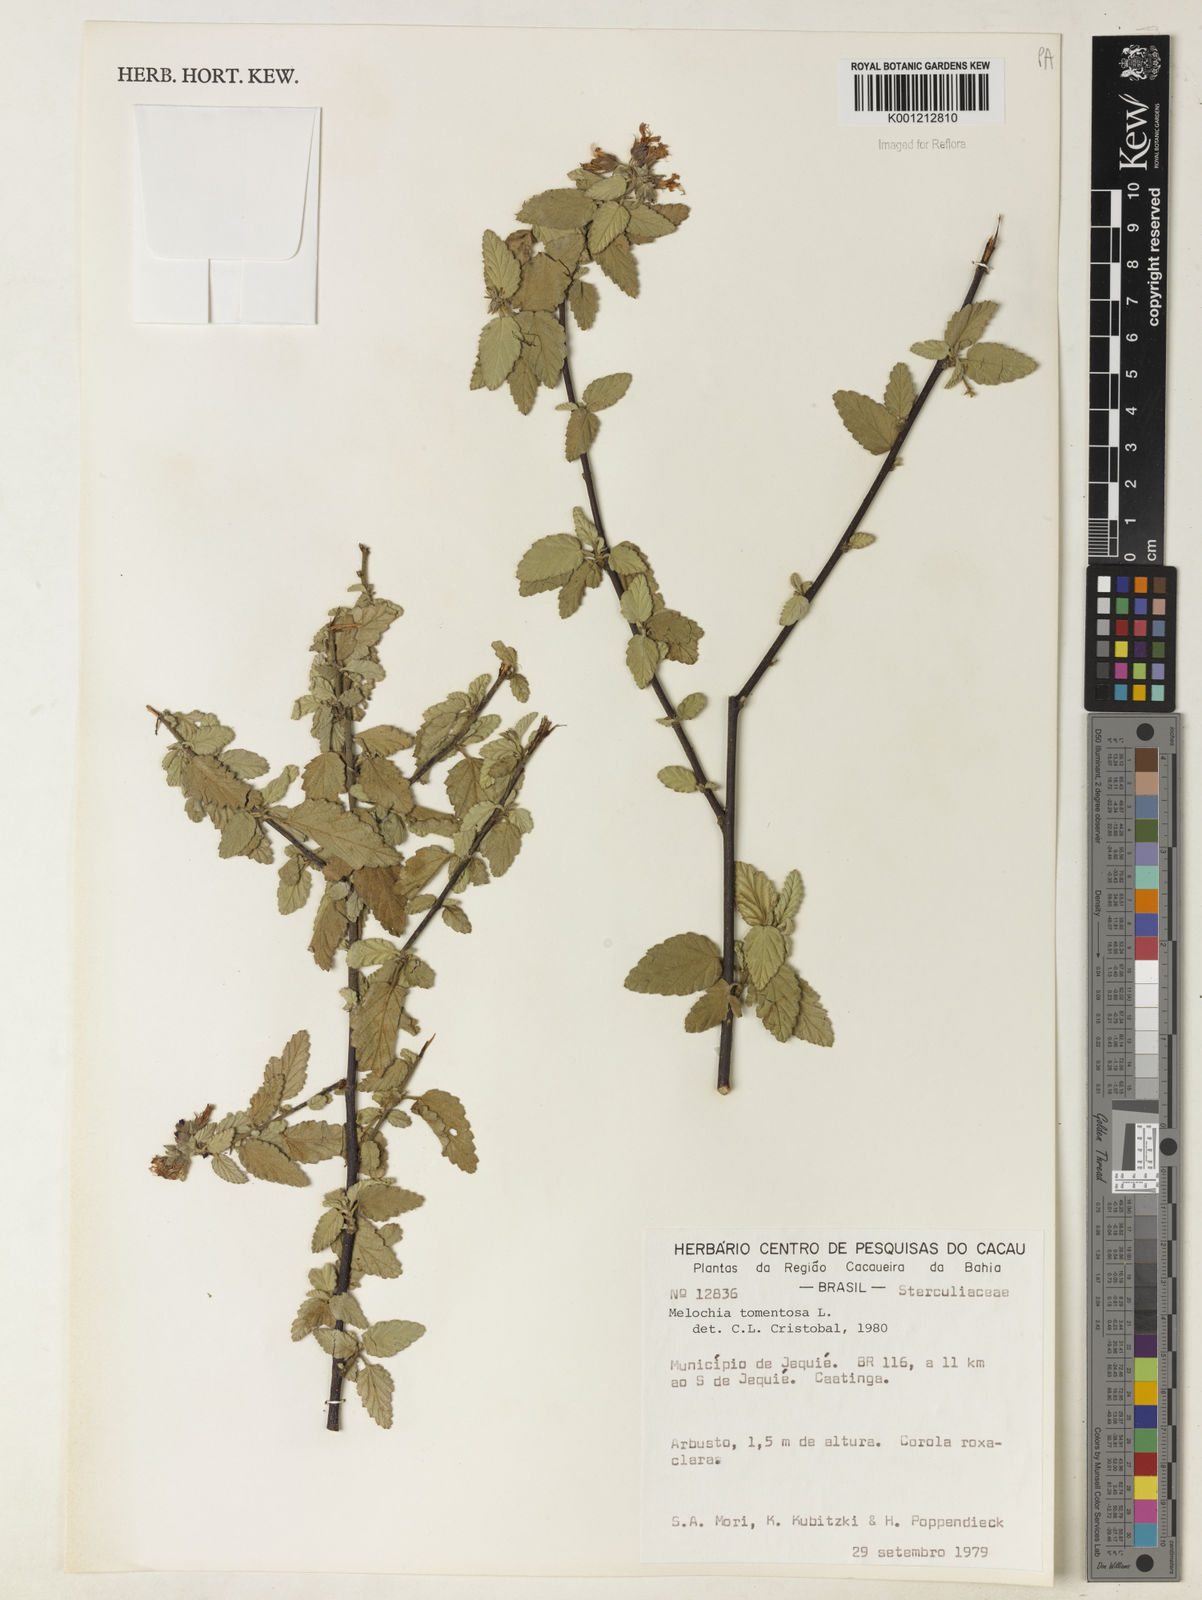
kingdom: Plantae
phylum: Tracheophyta
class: Magnoliopsida
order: Malvales
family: Malvaceae
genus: Melochia
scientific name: Melochia tomentosa
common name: Black torch
